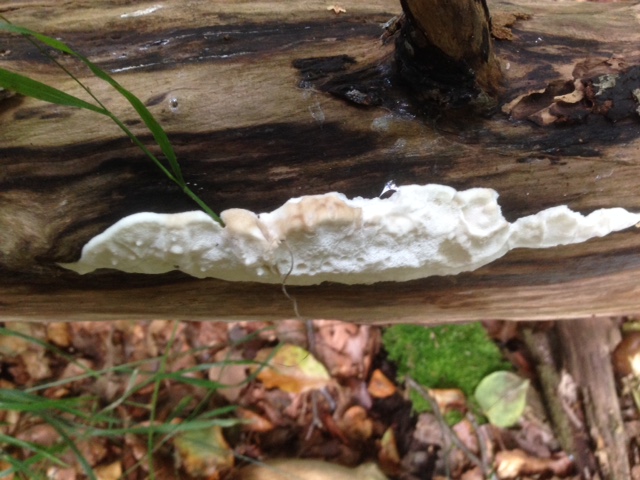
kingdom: Fungi
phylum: Basidiomycota
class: Agaricomycetes
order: Polyporales
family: Incrustoporiaceae
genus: Tyromyces
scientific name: Tyromyces chioneus
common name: stor blødporesvamp
